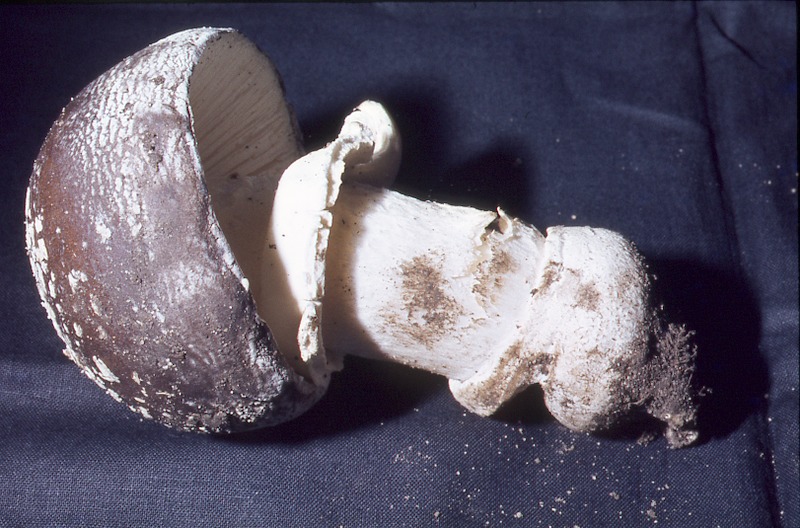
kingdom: Fungi
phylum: Basidiomycota
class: Agaricomycetes
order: Agaricales
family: Amanitaceae
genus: Amanita
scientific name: Amanita pantherina
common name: Panthercap
